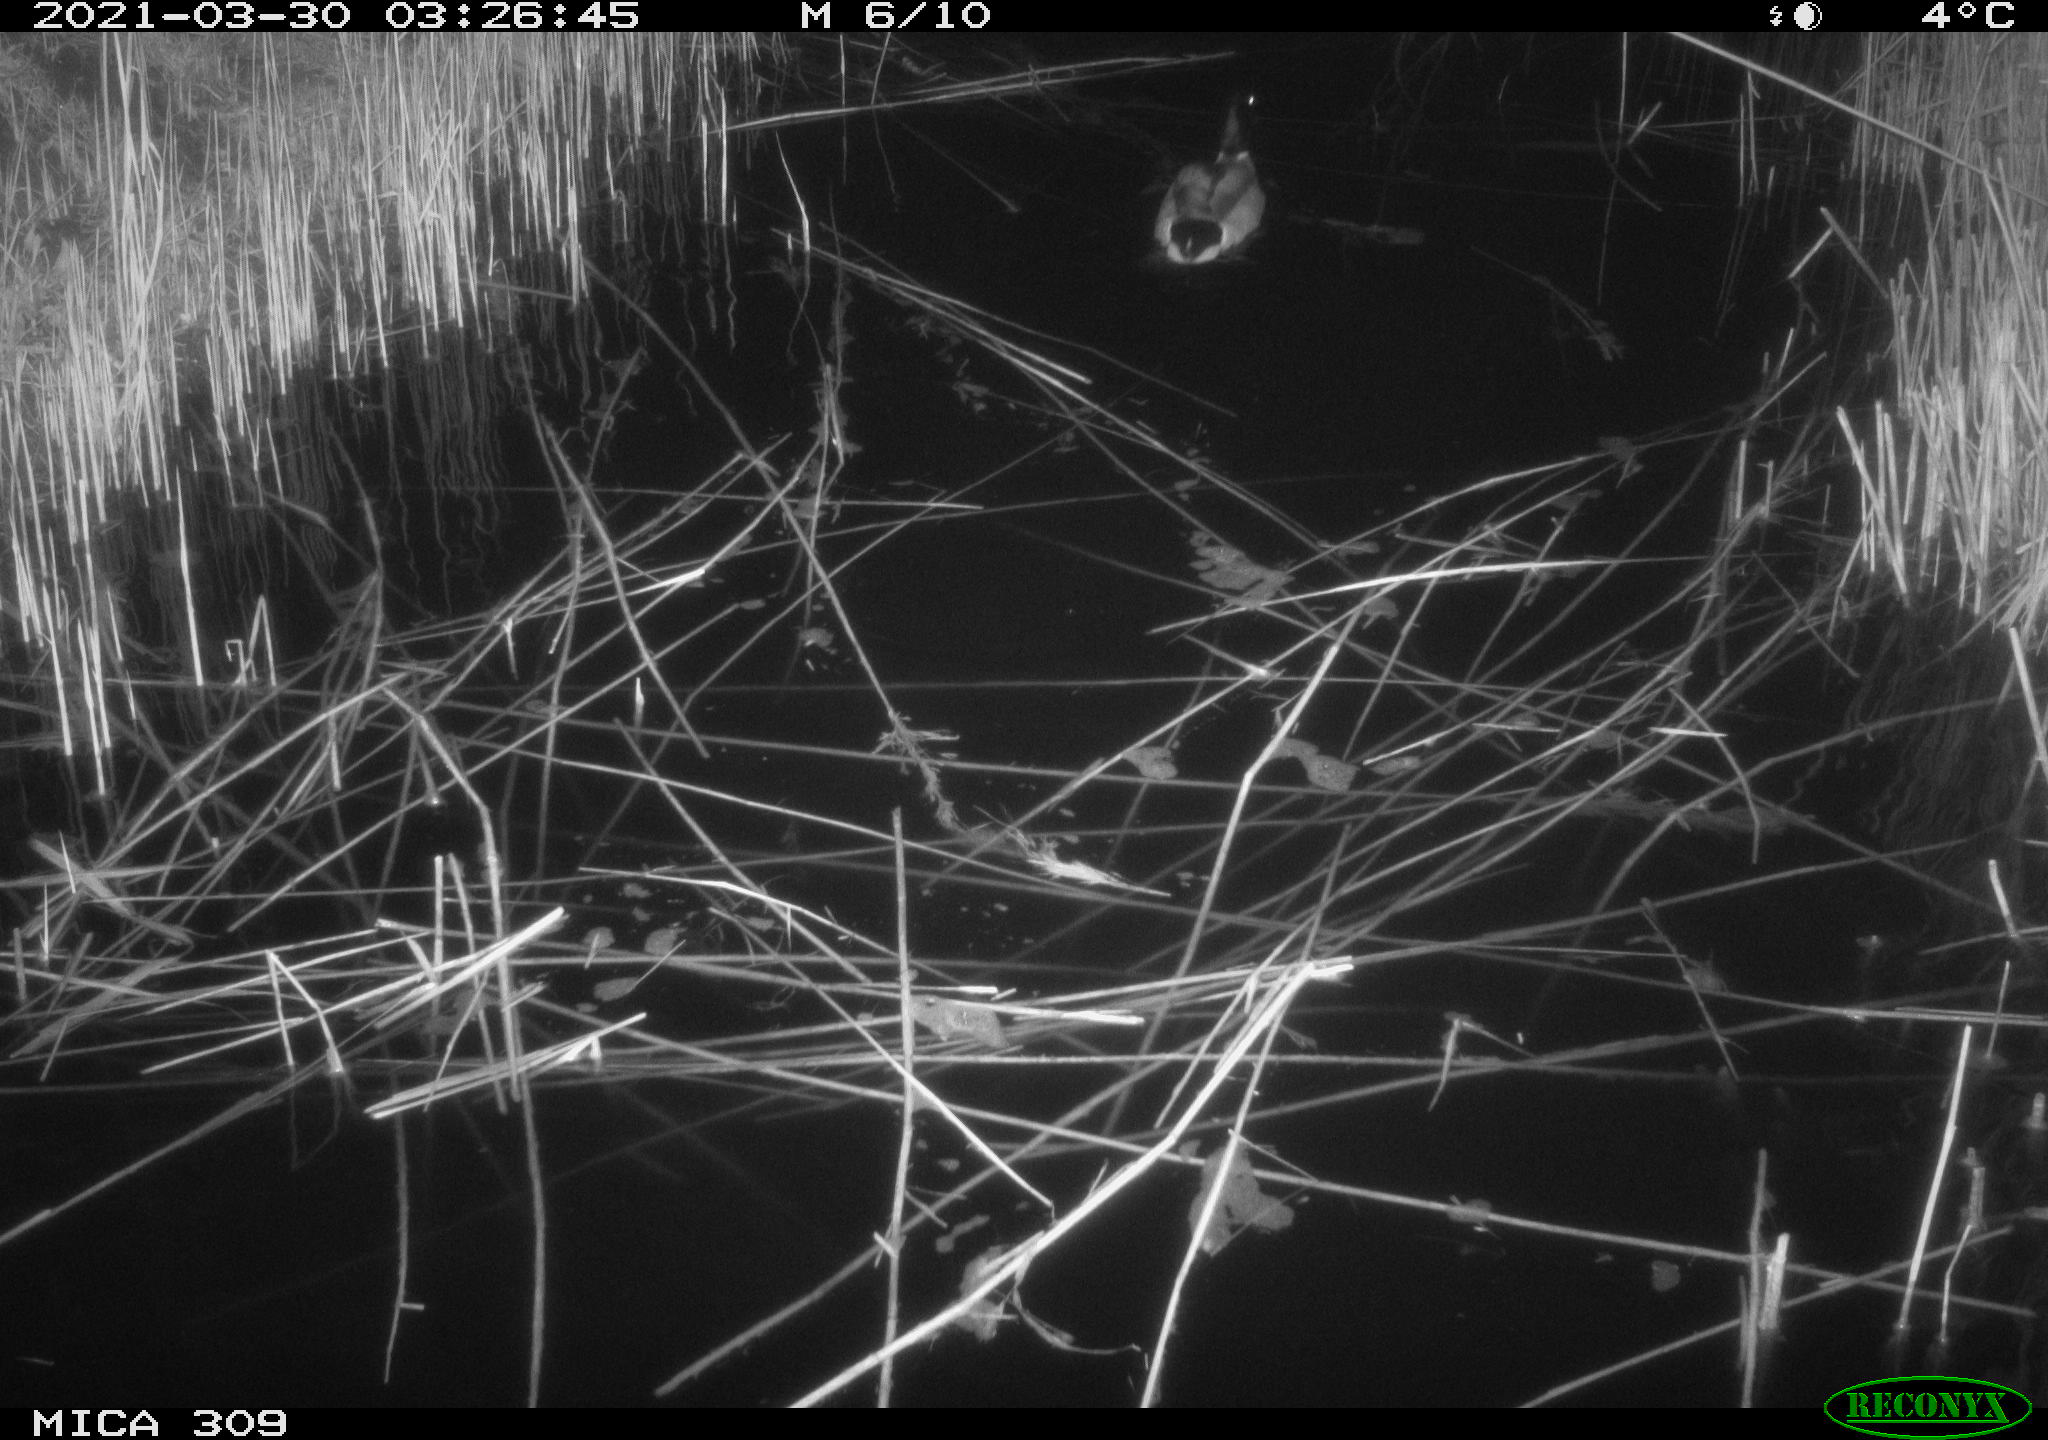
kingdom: Animalia
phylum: Chordata
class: Aves
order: Anseriformes
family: Anatidae
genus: Anas
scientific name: Anas platyrhynchos
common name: Mallard
